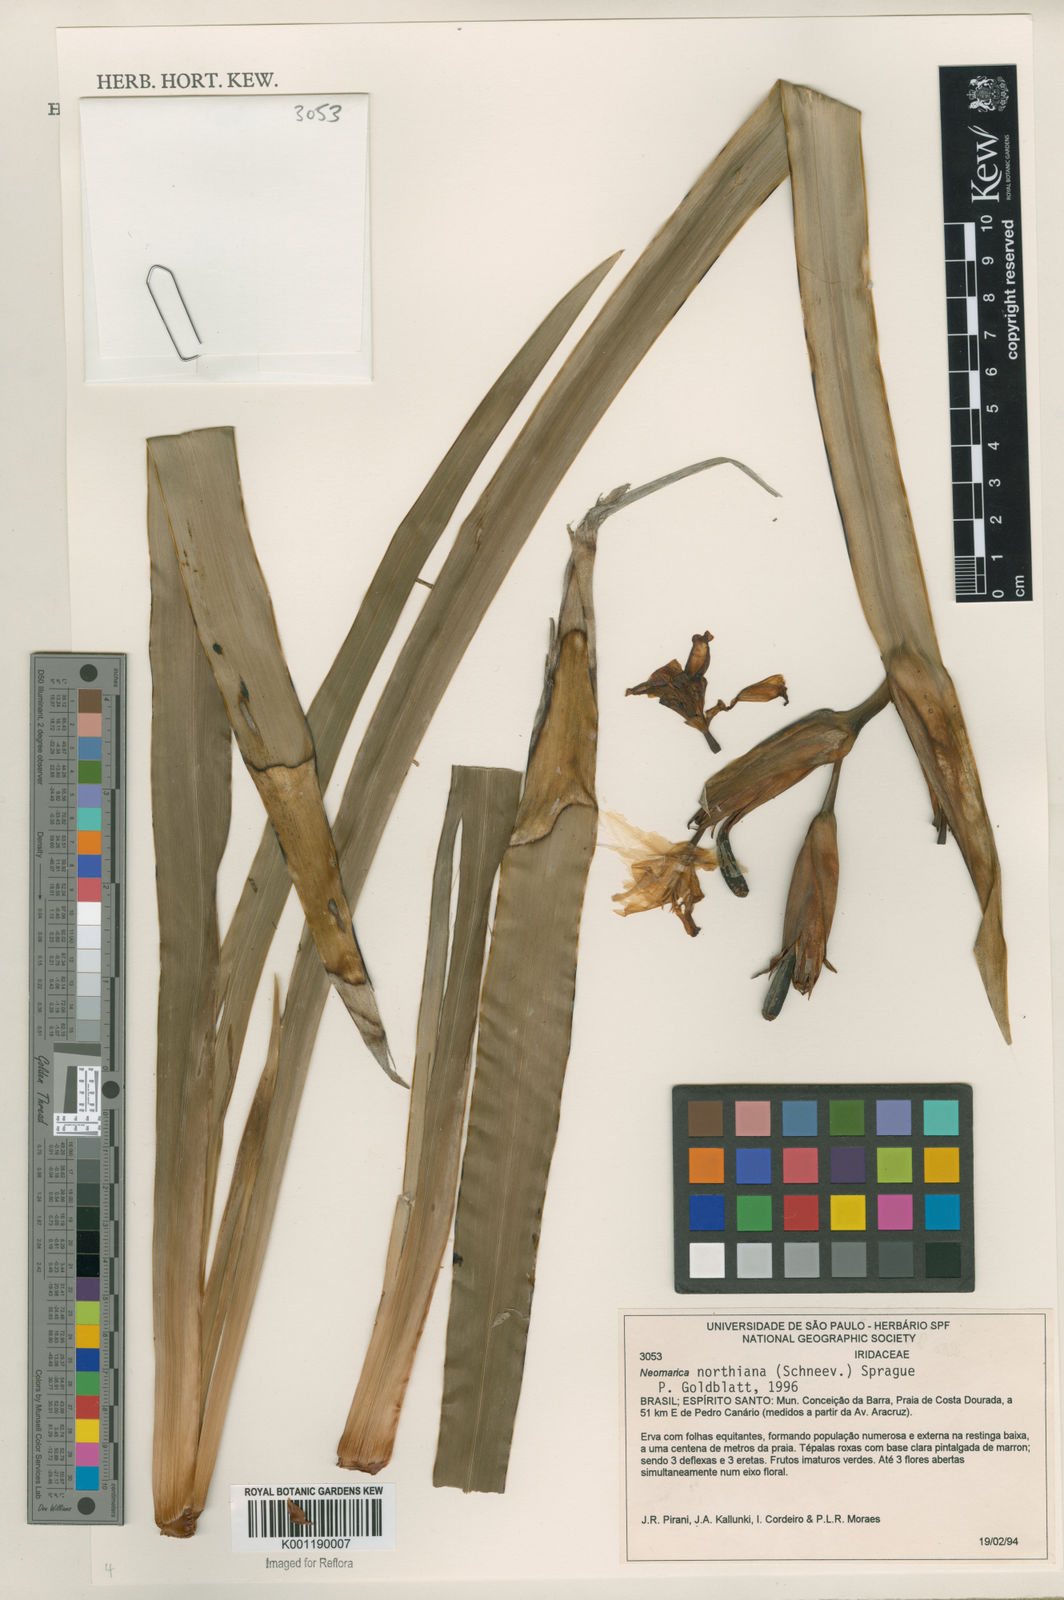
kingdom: Plantae
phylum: Tracheophyta
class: Liliopsida
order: Asparagales
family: Iridaceae
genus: Trimezia
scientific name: Trimezia northiana
